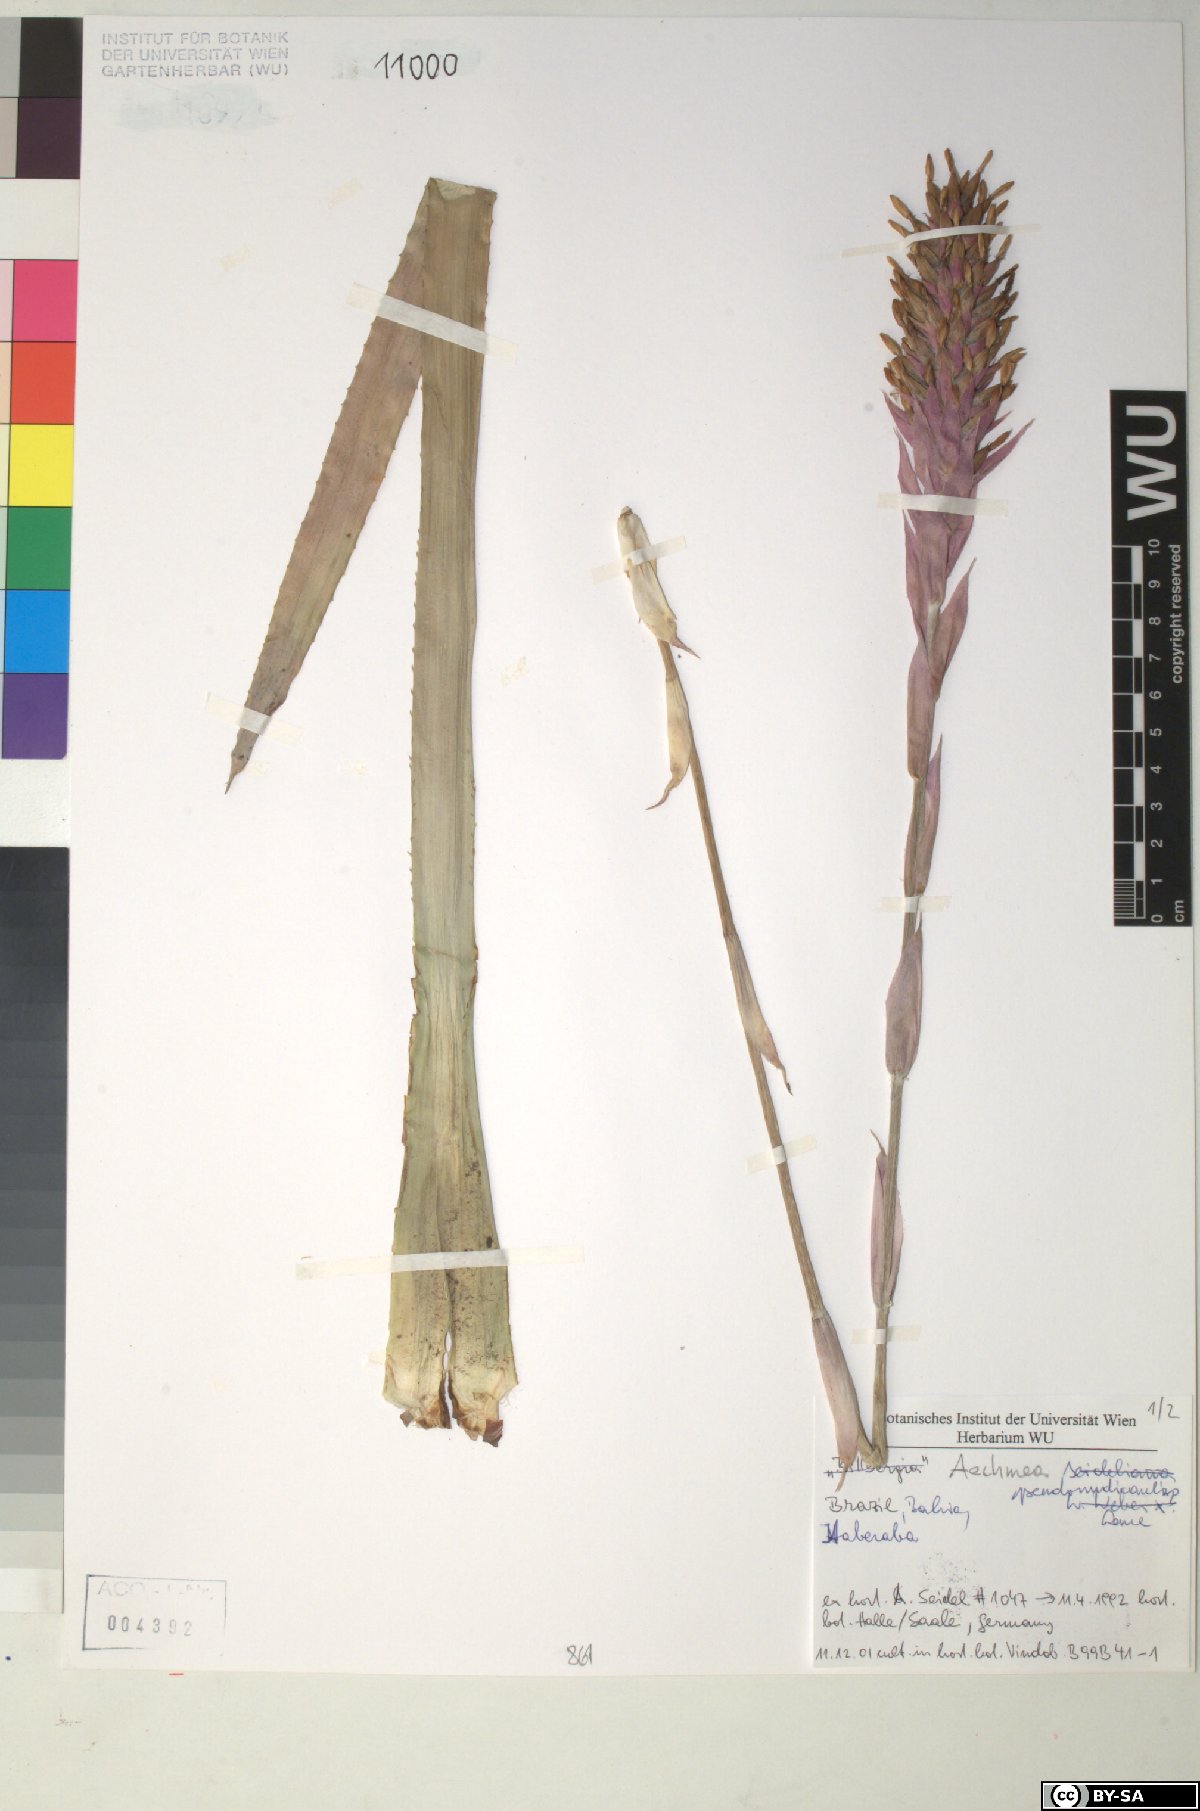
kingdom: Plantae
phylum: Tracheophyta
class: Liliopsida
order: Poales
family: Bromeliaceae
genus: Aechmea
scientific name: Aechmea penduliflora
